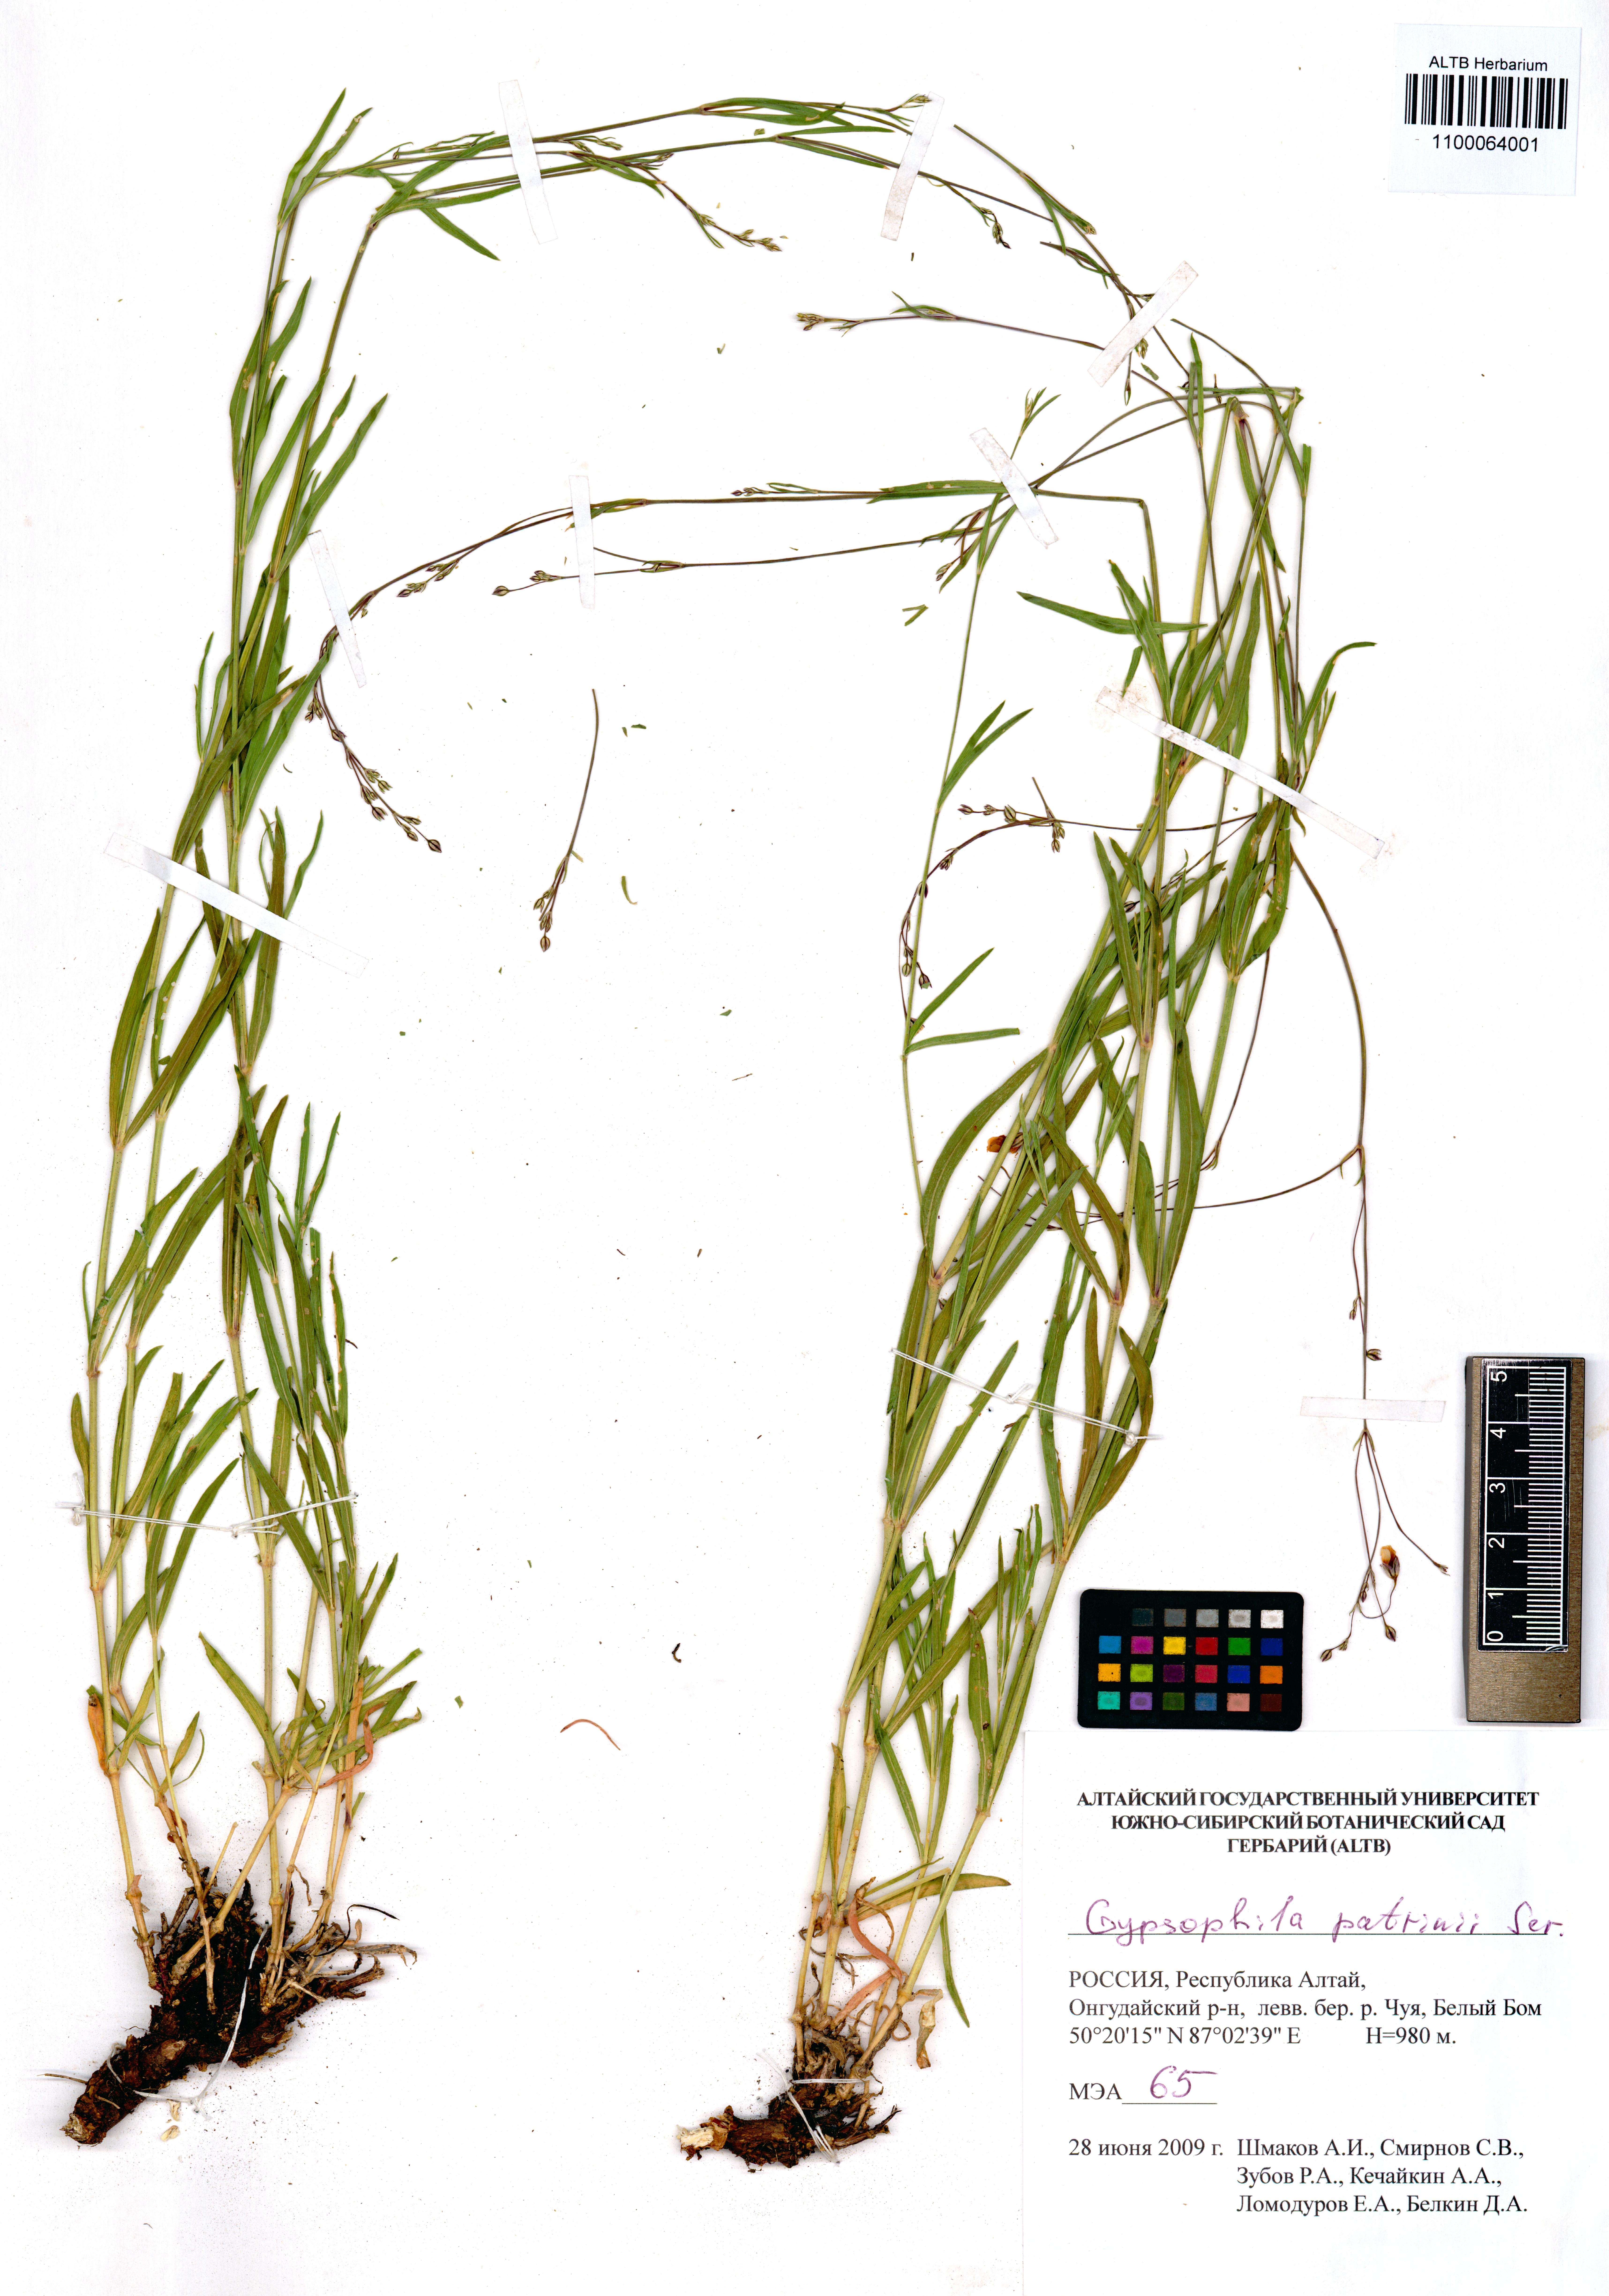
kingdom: Plantae
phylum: Tracheophyta
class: Magnoliopsida
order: Caryophyllales
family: Caryophyllaceae
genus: Gypsophila
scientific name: Gypsophila patrinii
